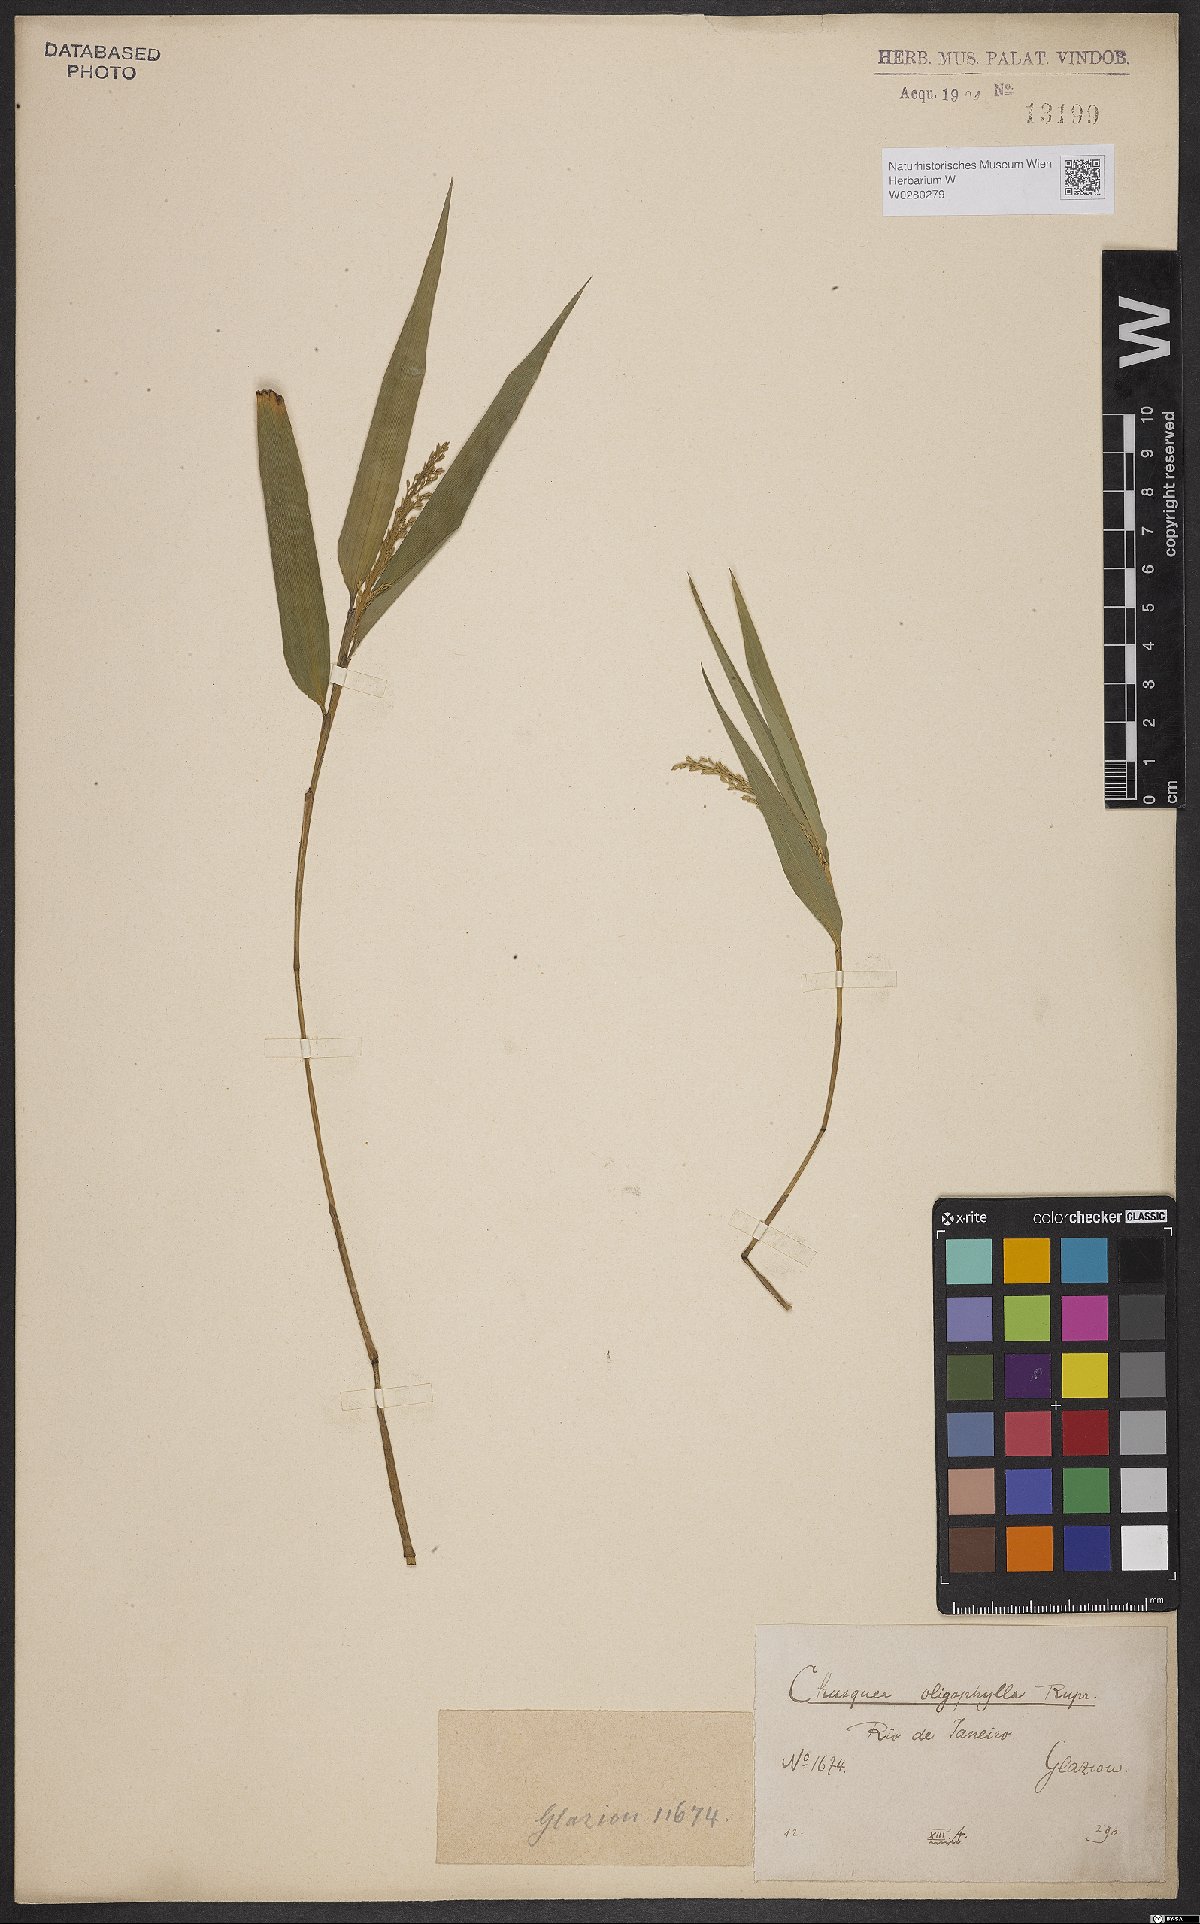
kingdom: Plantae
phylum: Tracheophyta
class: Liliopsida
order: Poales
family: Poaceae
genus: Chusquea
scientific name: Chusquea oligophylla
